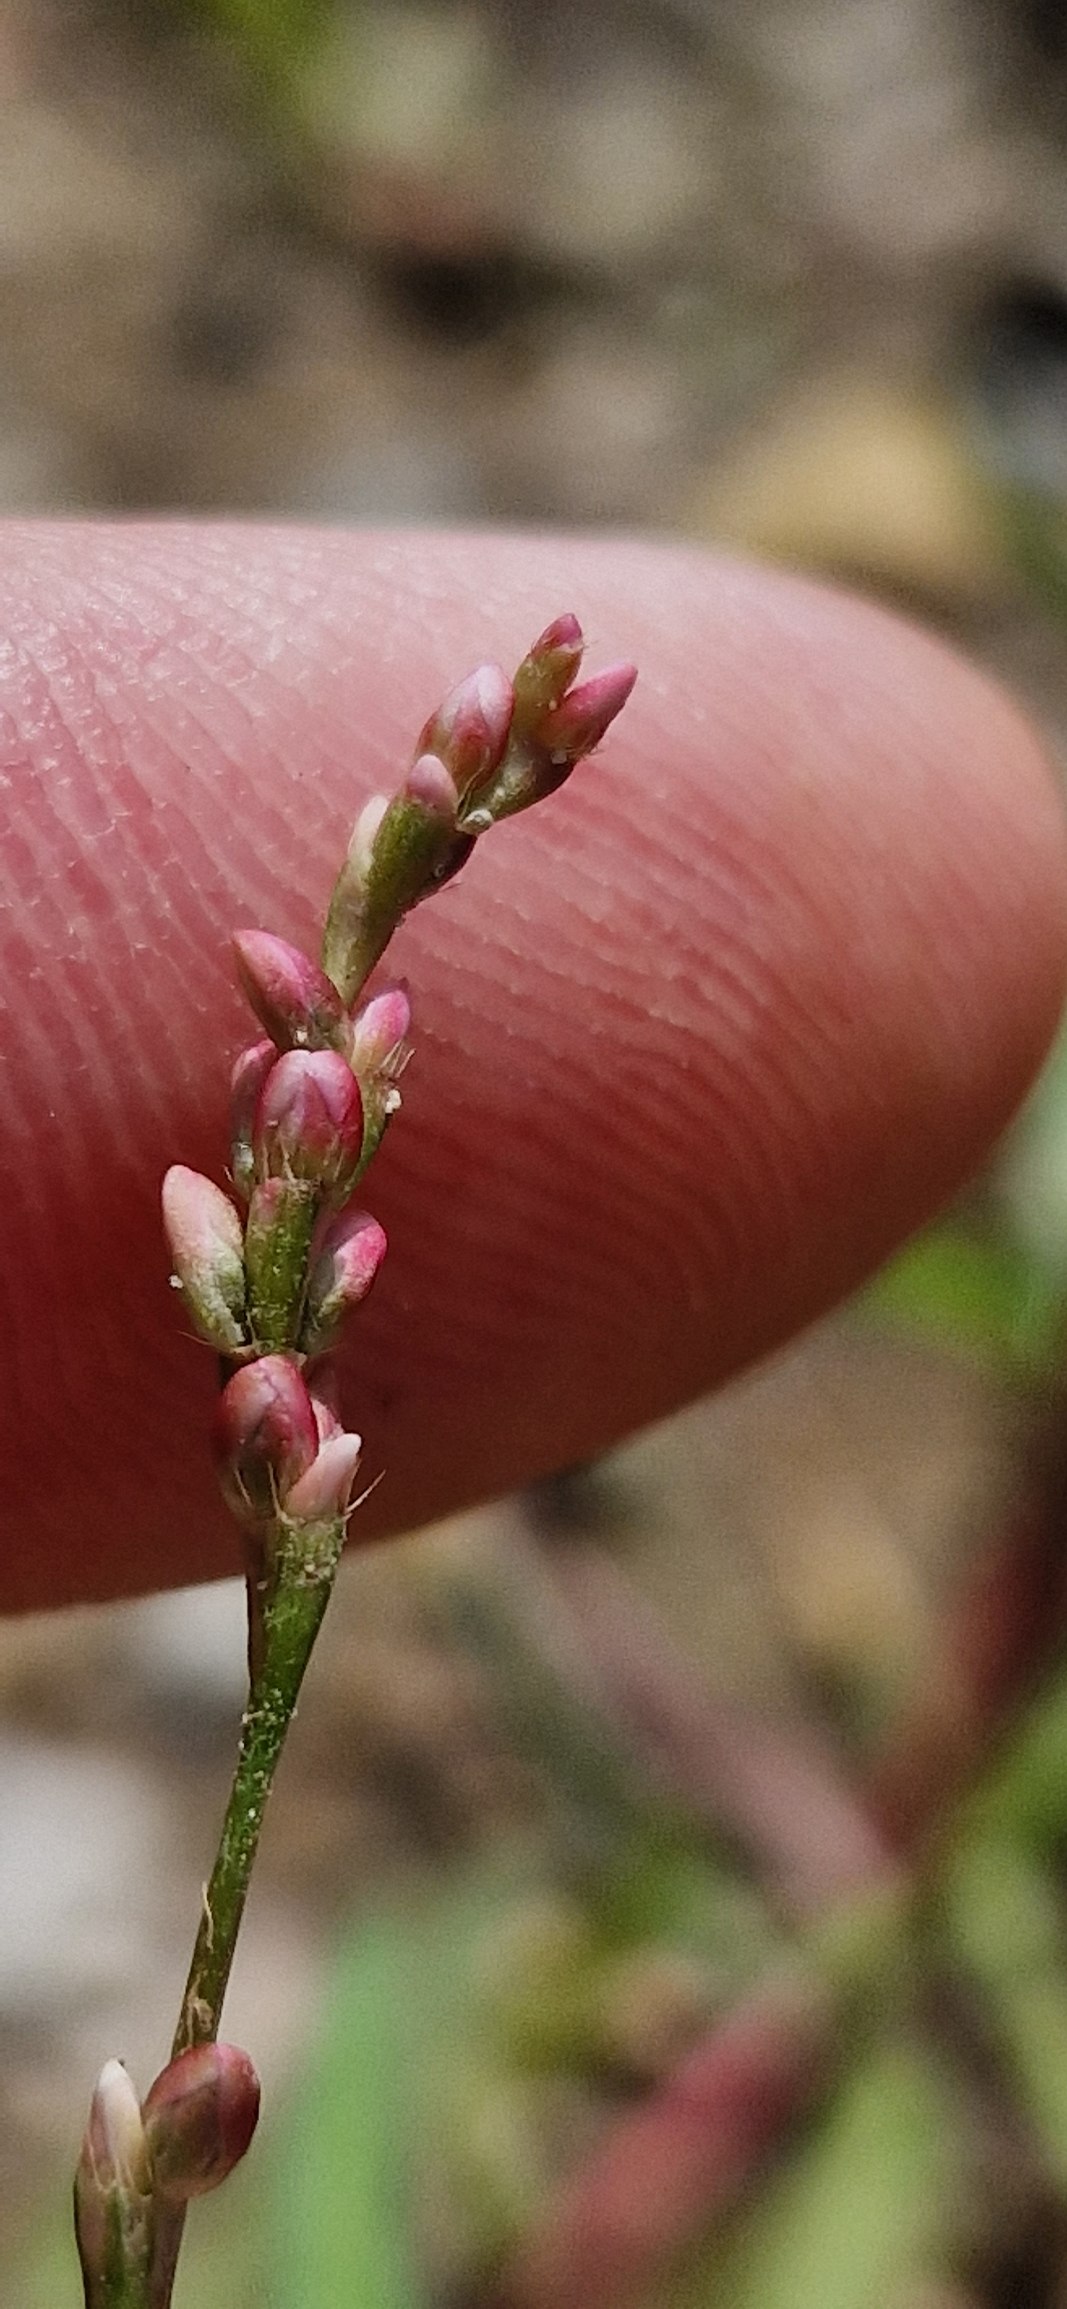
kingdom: Plantae
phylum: Tracheophyta
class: Magnoliopsida
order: Caryophyllales
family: Polygonaceae
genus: Persicaria
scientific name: Persicaria minor
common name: Liden pileurt
